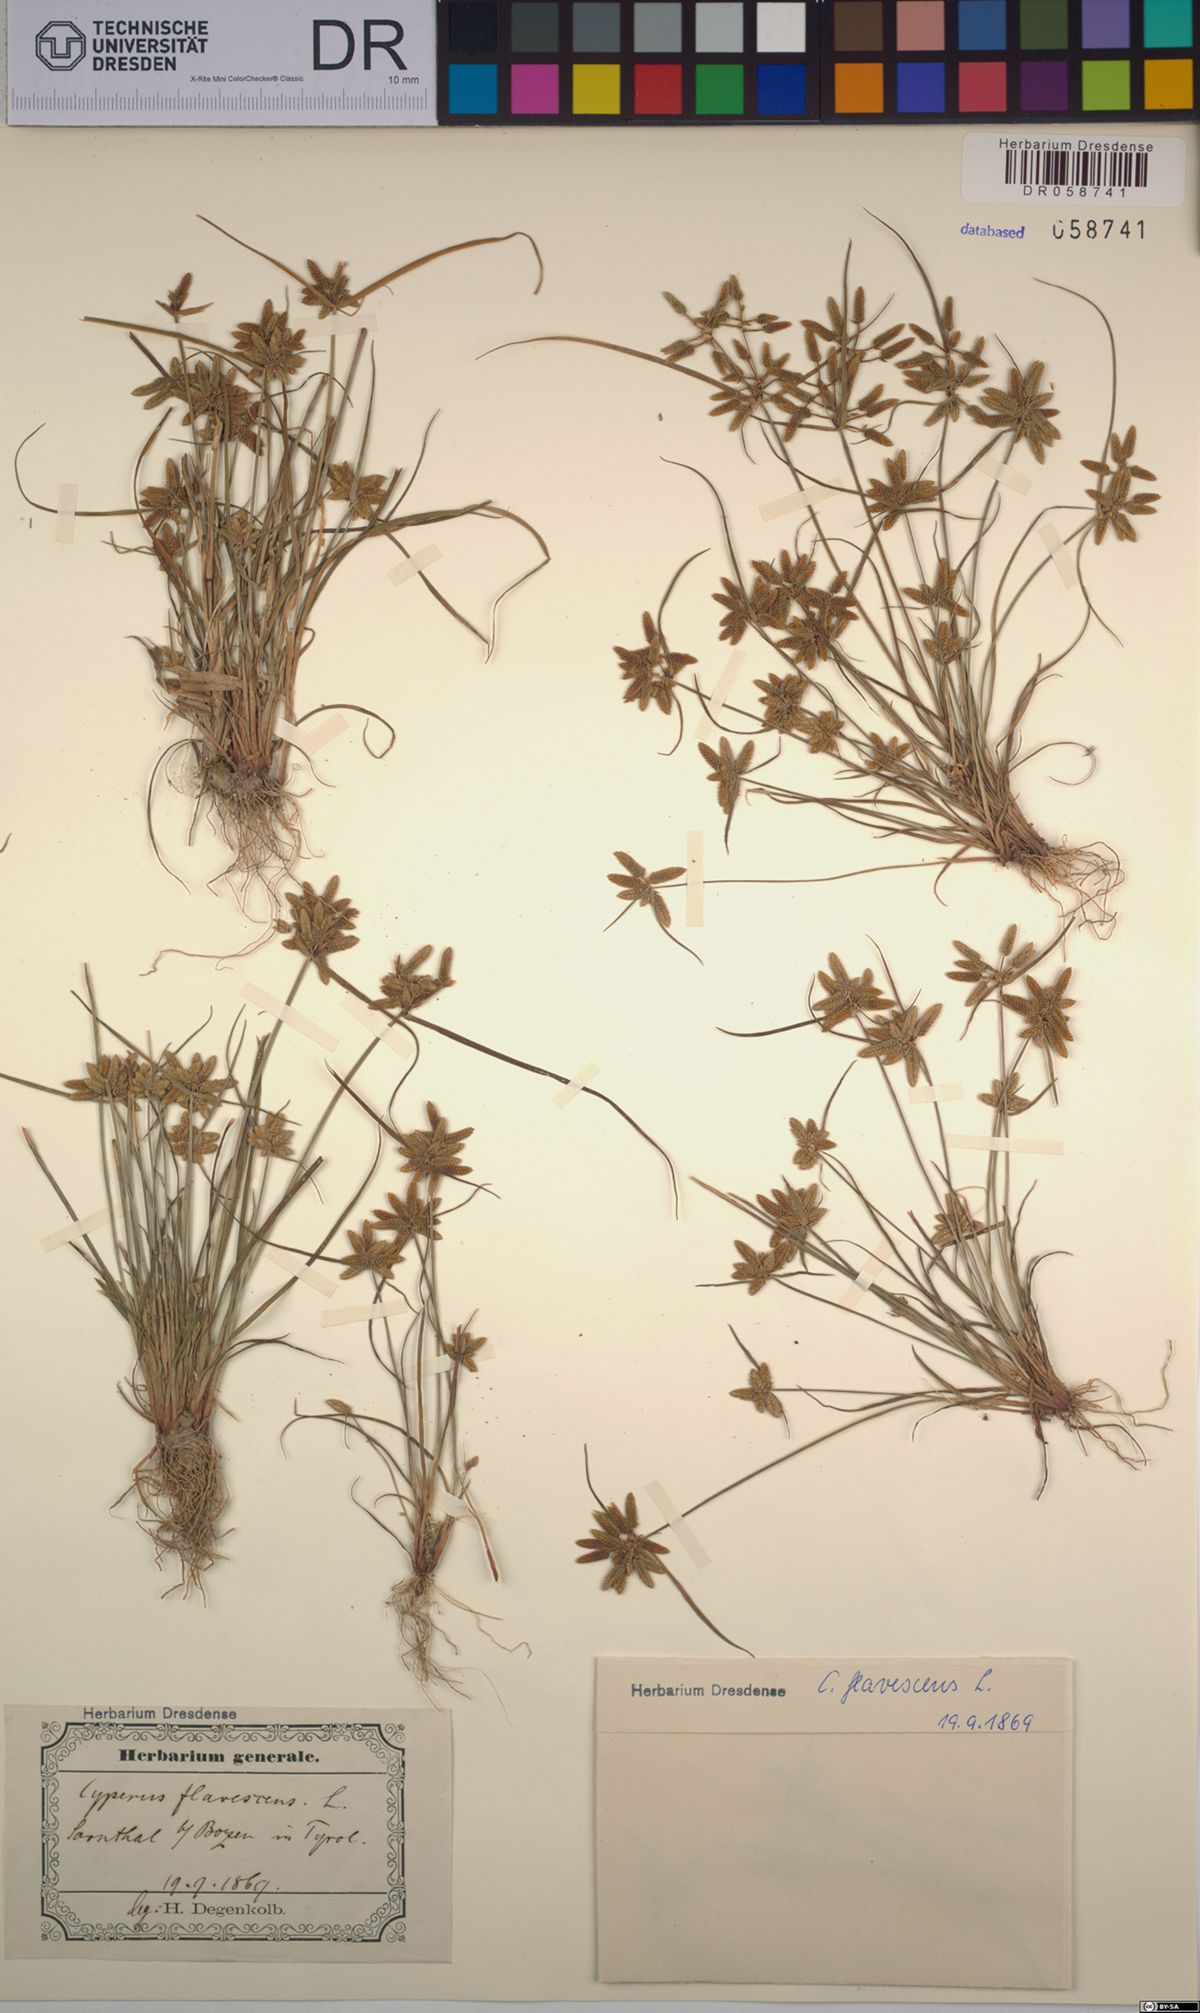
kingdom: Plantae
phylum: Tracheophyta
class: Liliopsida
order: Poales
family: Cyperaceae
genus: Cyperus
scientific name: Cyperus flavescens
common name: Yellow galingale
